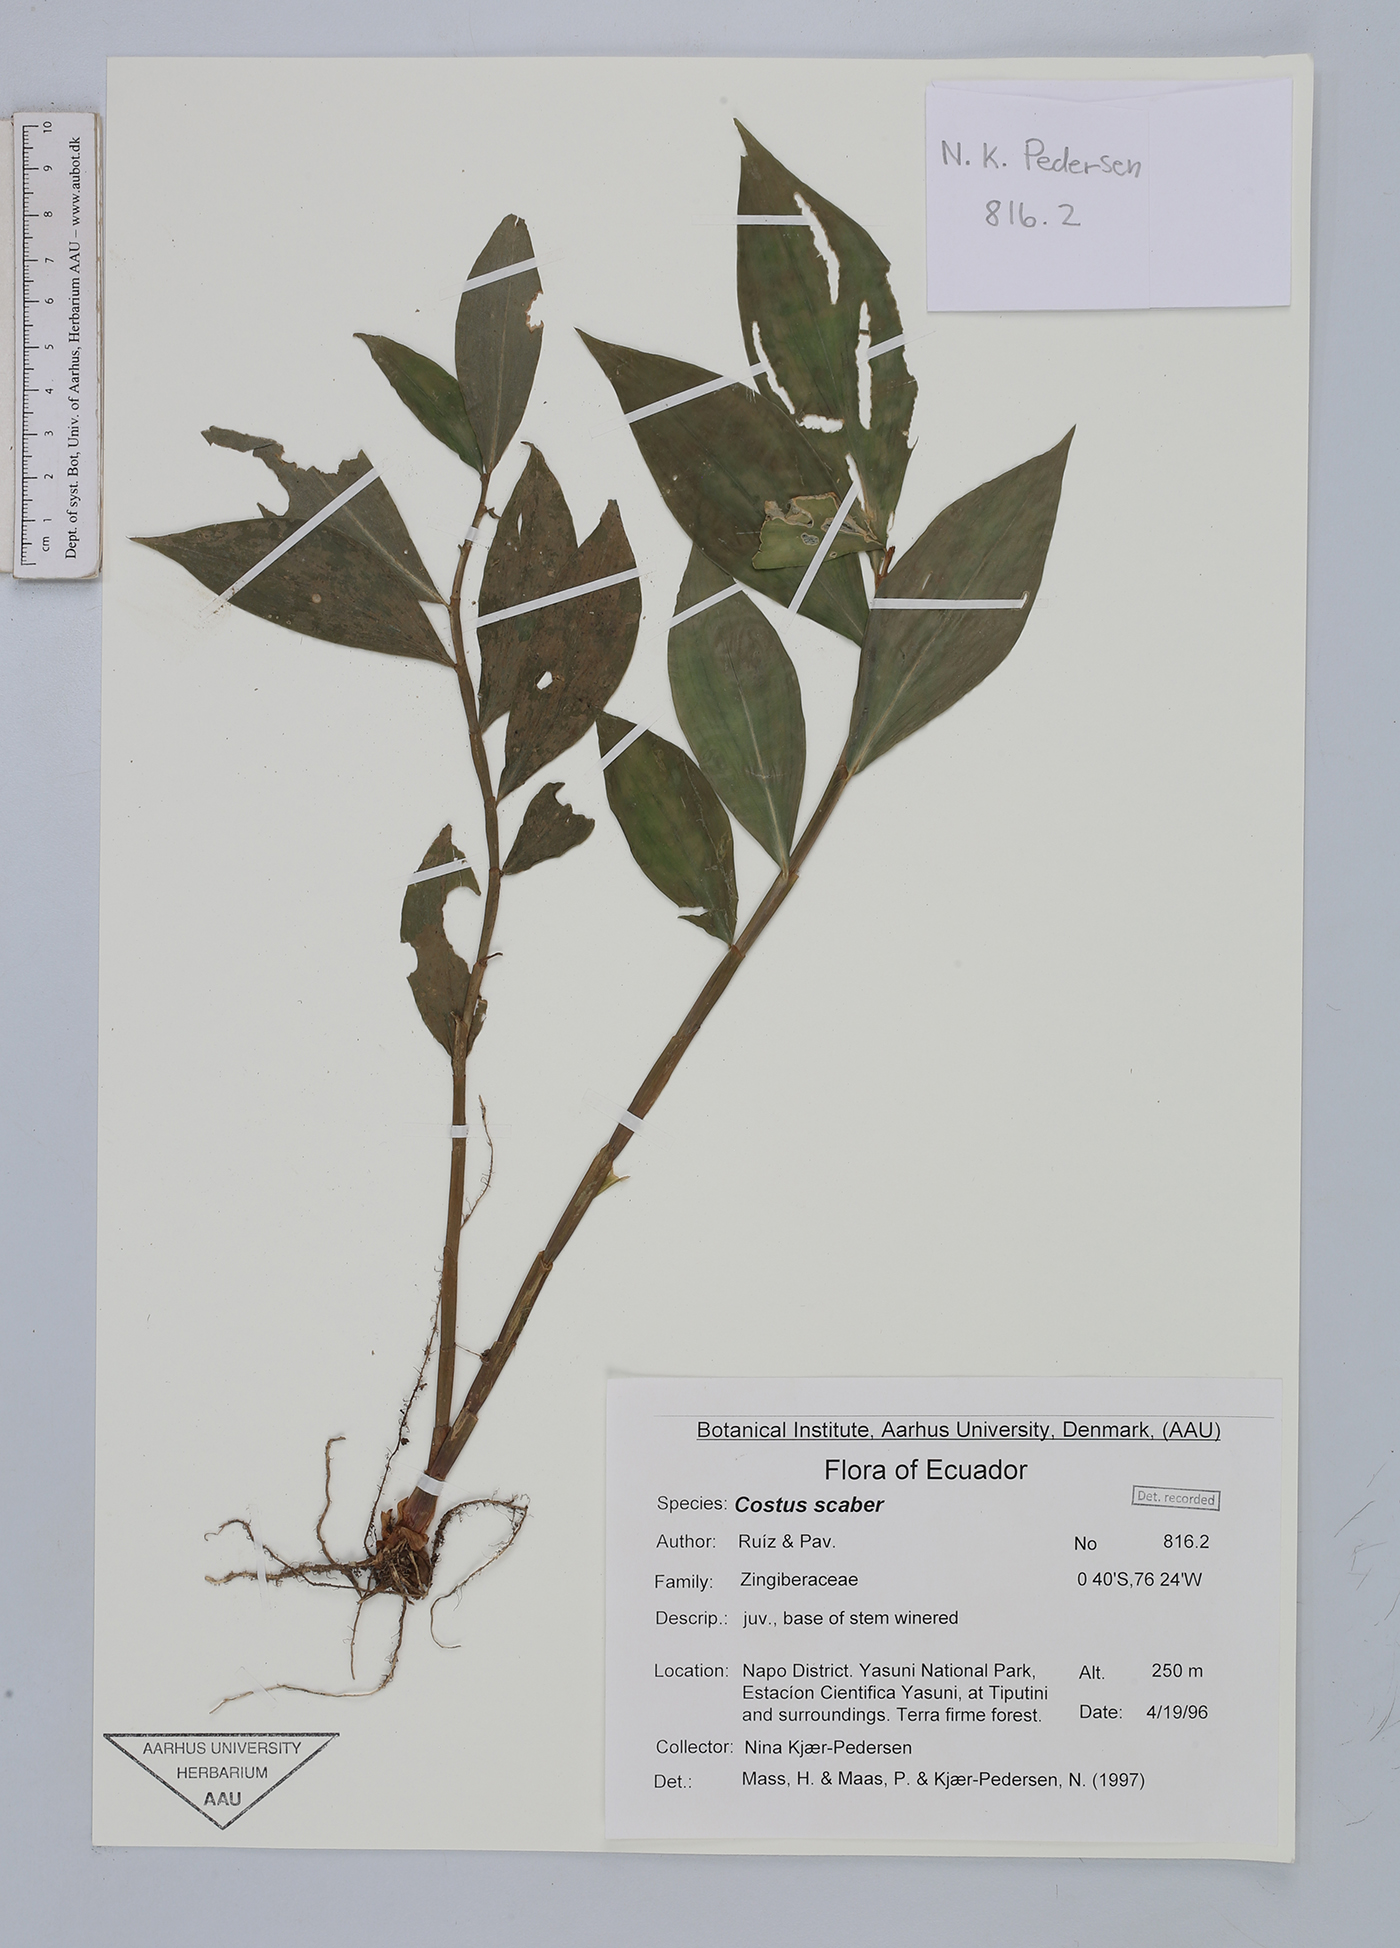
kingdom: Plantae
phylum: Tracheophyta
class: Liliopsida
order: Zingiberales
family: Costaceae
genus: Costus
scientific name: Costus scaber
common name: Spiral head ginger
